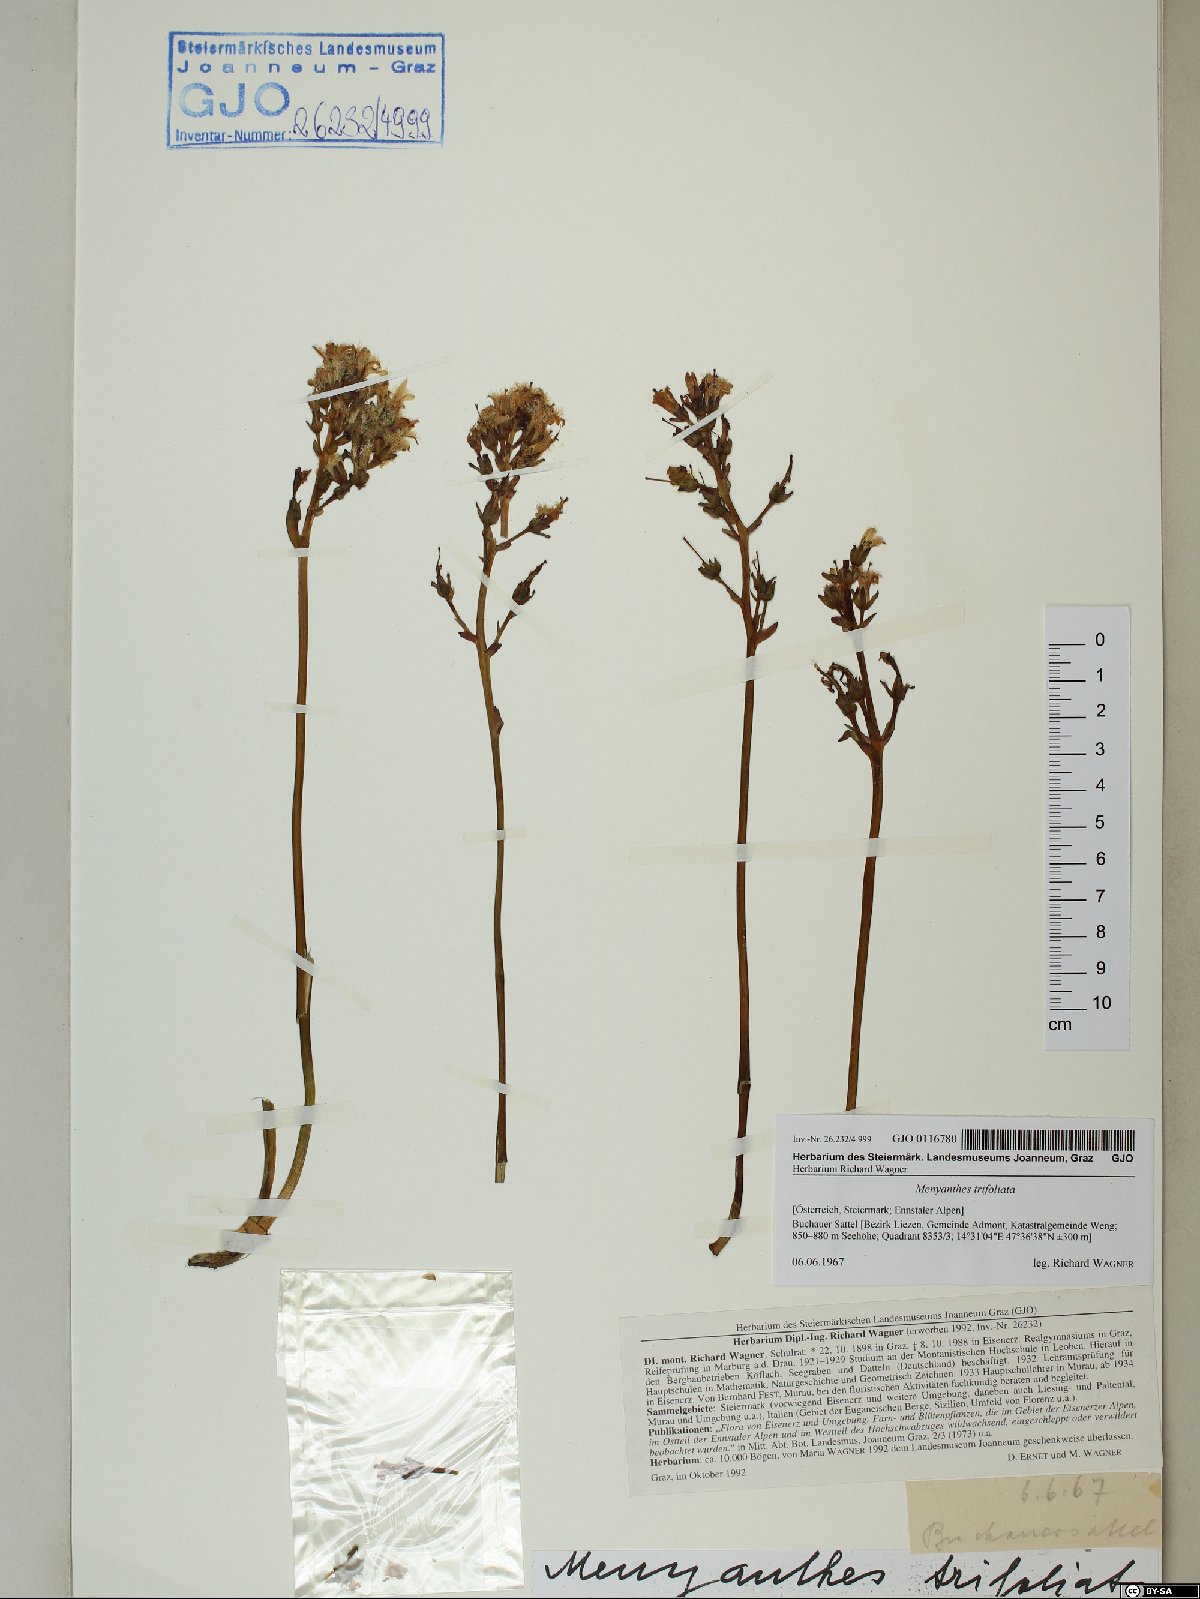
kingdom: Plantae
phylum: Tracheophyta
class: Magnoliopsida
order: Asterales
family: Menyanthaceae
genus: Menyanthes
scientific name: Menyanthes trifoliata
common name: Bogbean
